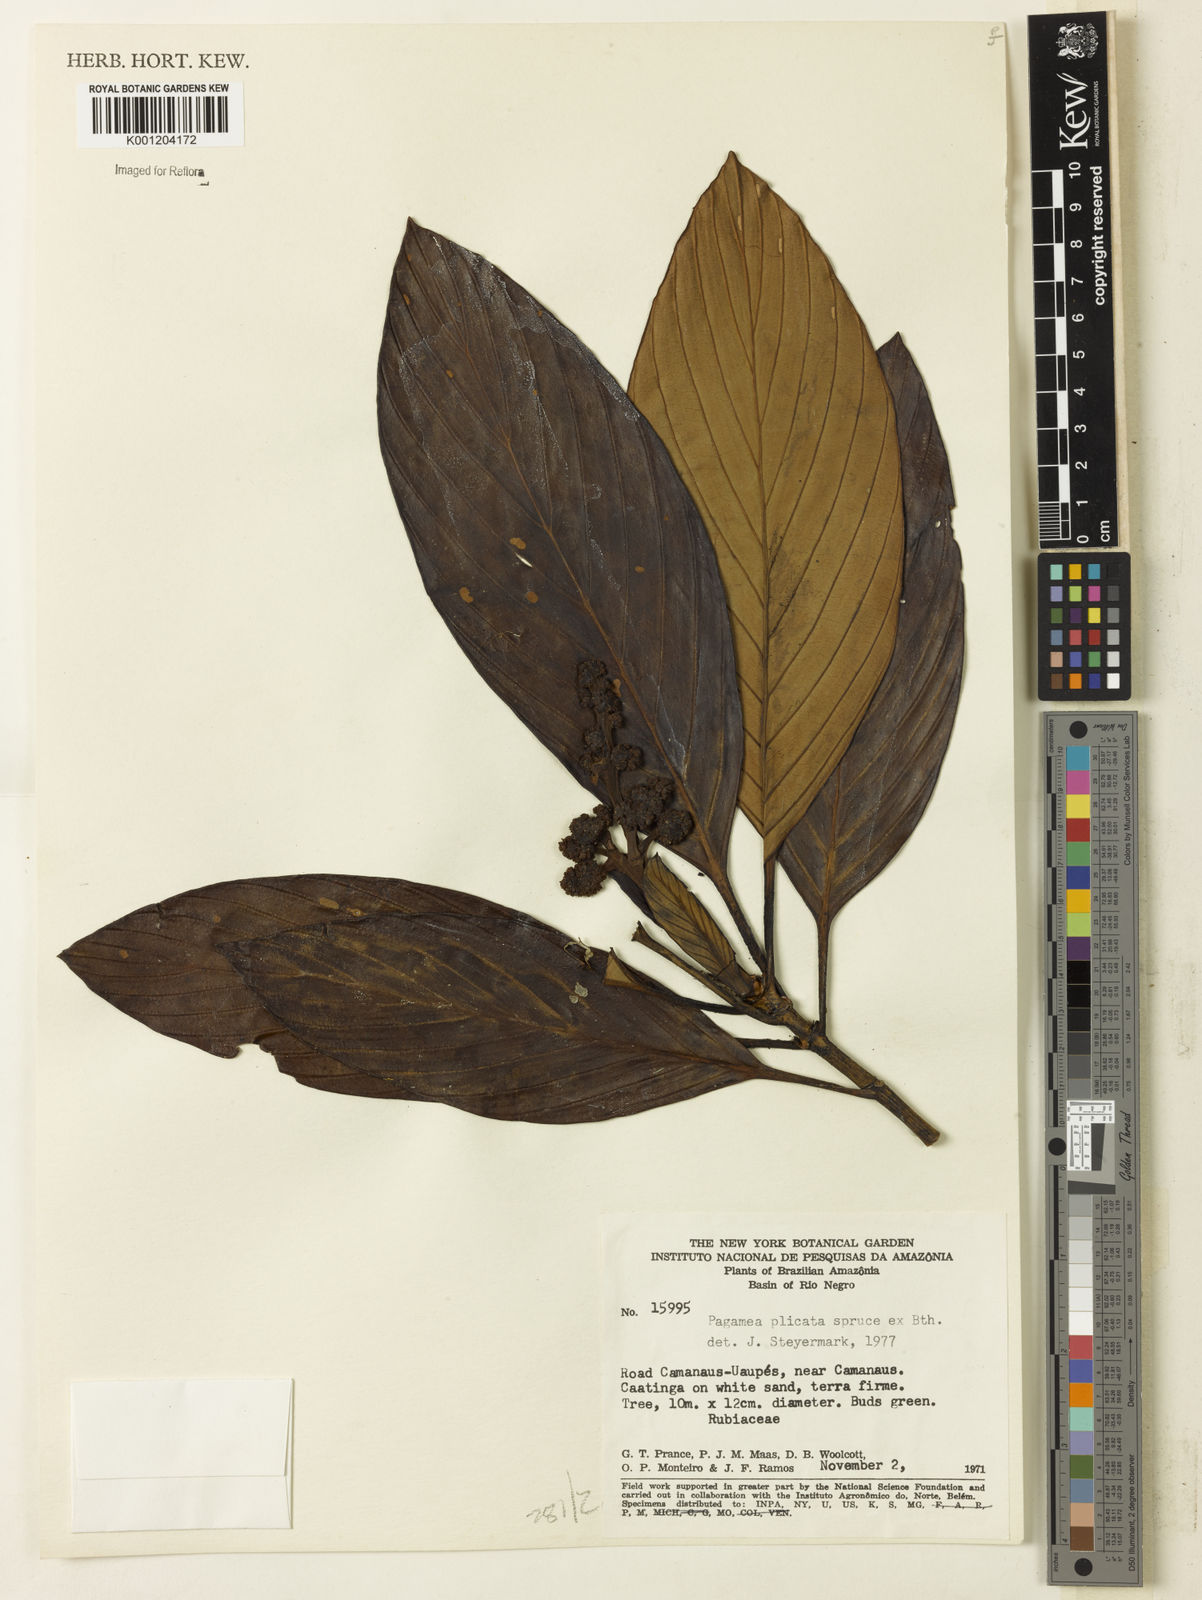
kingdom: Plantae
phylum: Tracheophyta
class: Magnoliopsida
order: Gentianales
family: Rubiaceae
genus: Pagamea
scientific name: Pagamea plicata
